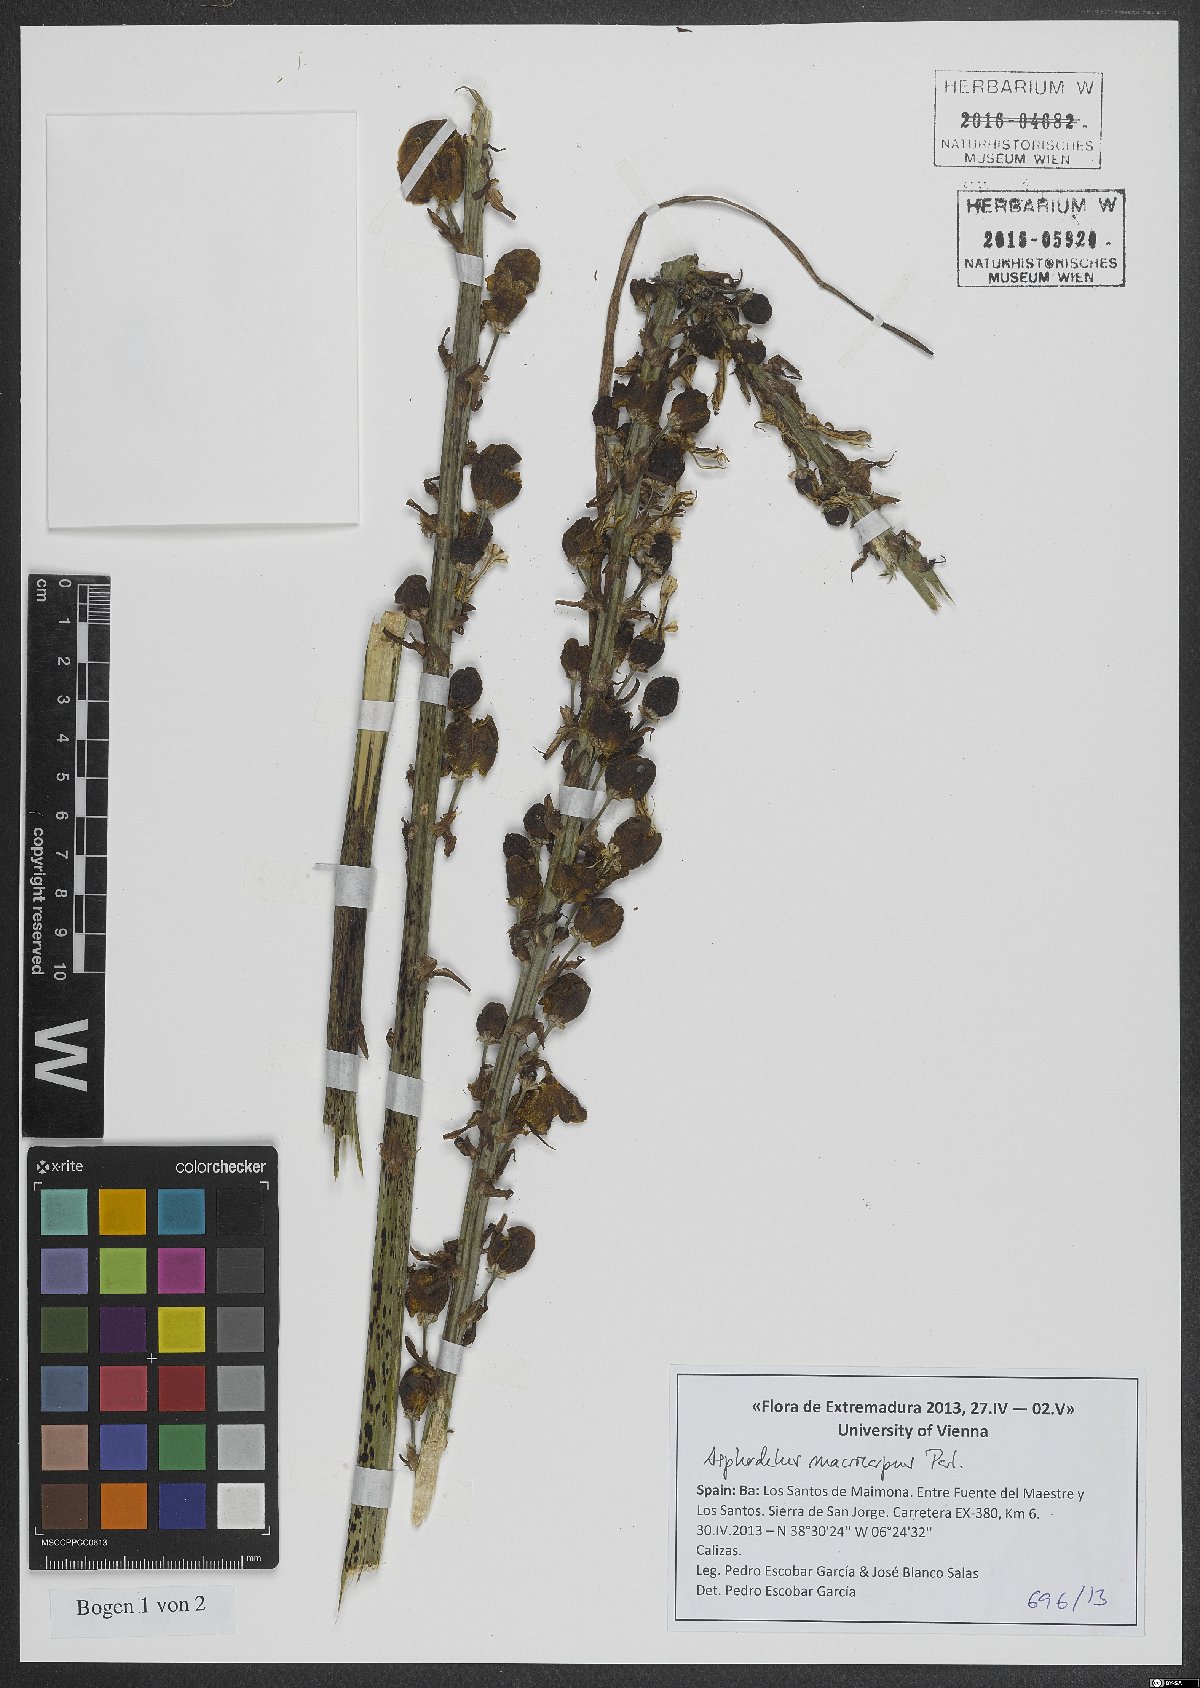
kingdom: Plantae
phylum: Tracheophyta
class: Liliopsida
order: Asparagales
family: Asphodelaceae
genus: Asphodelus
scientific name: Asphodelus macrocarpus
